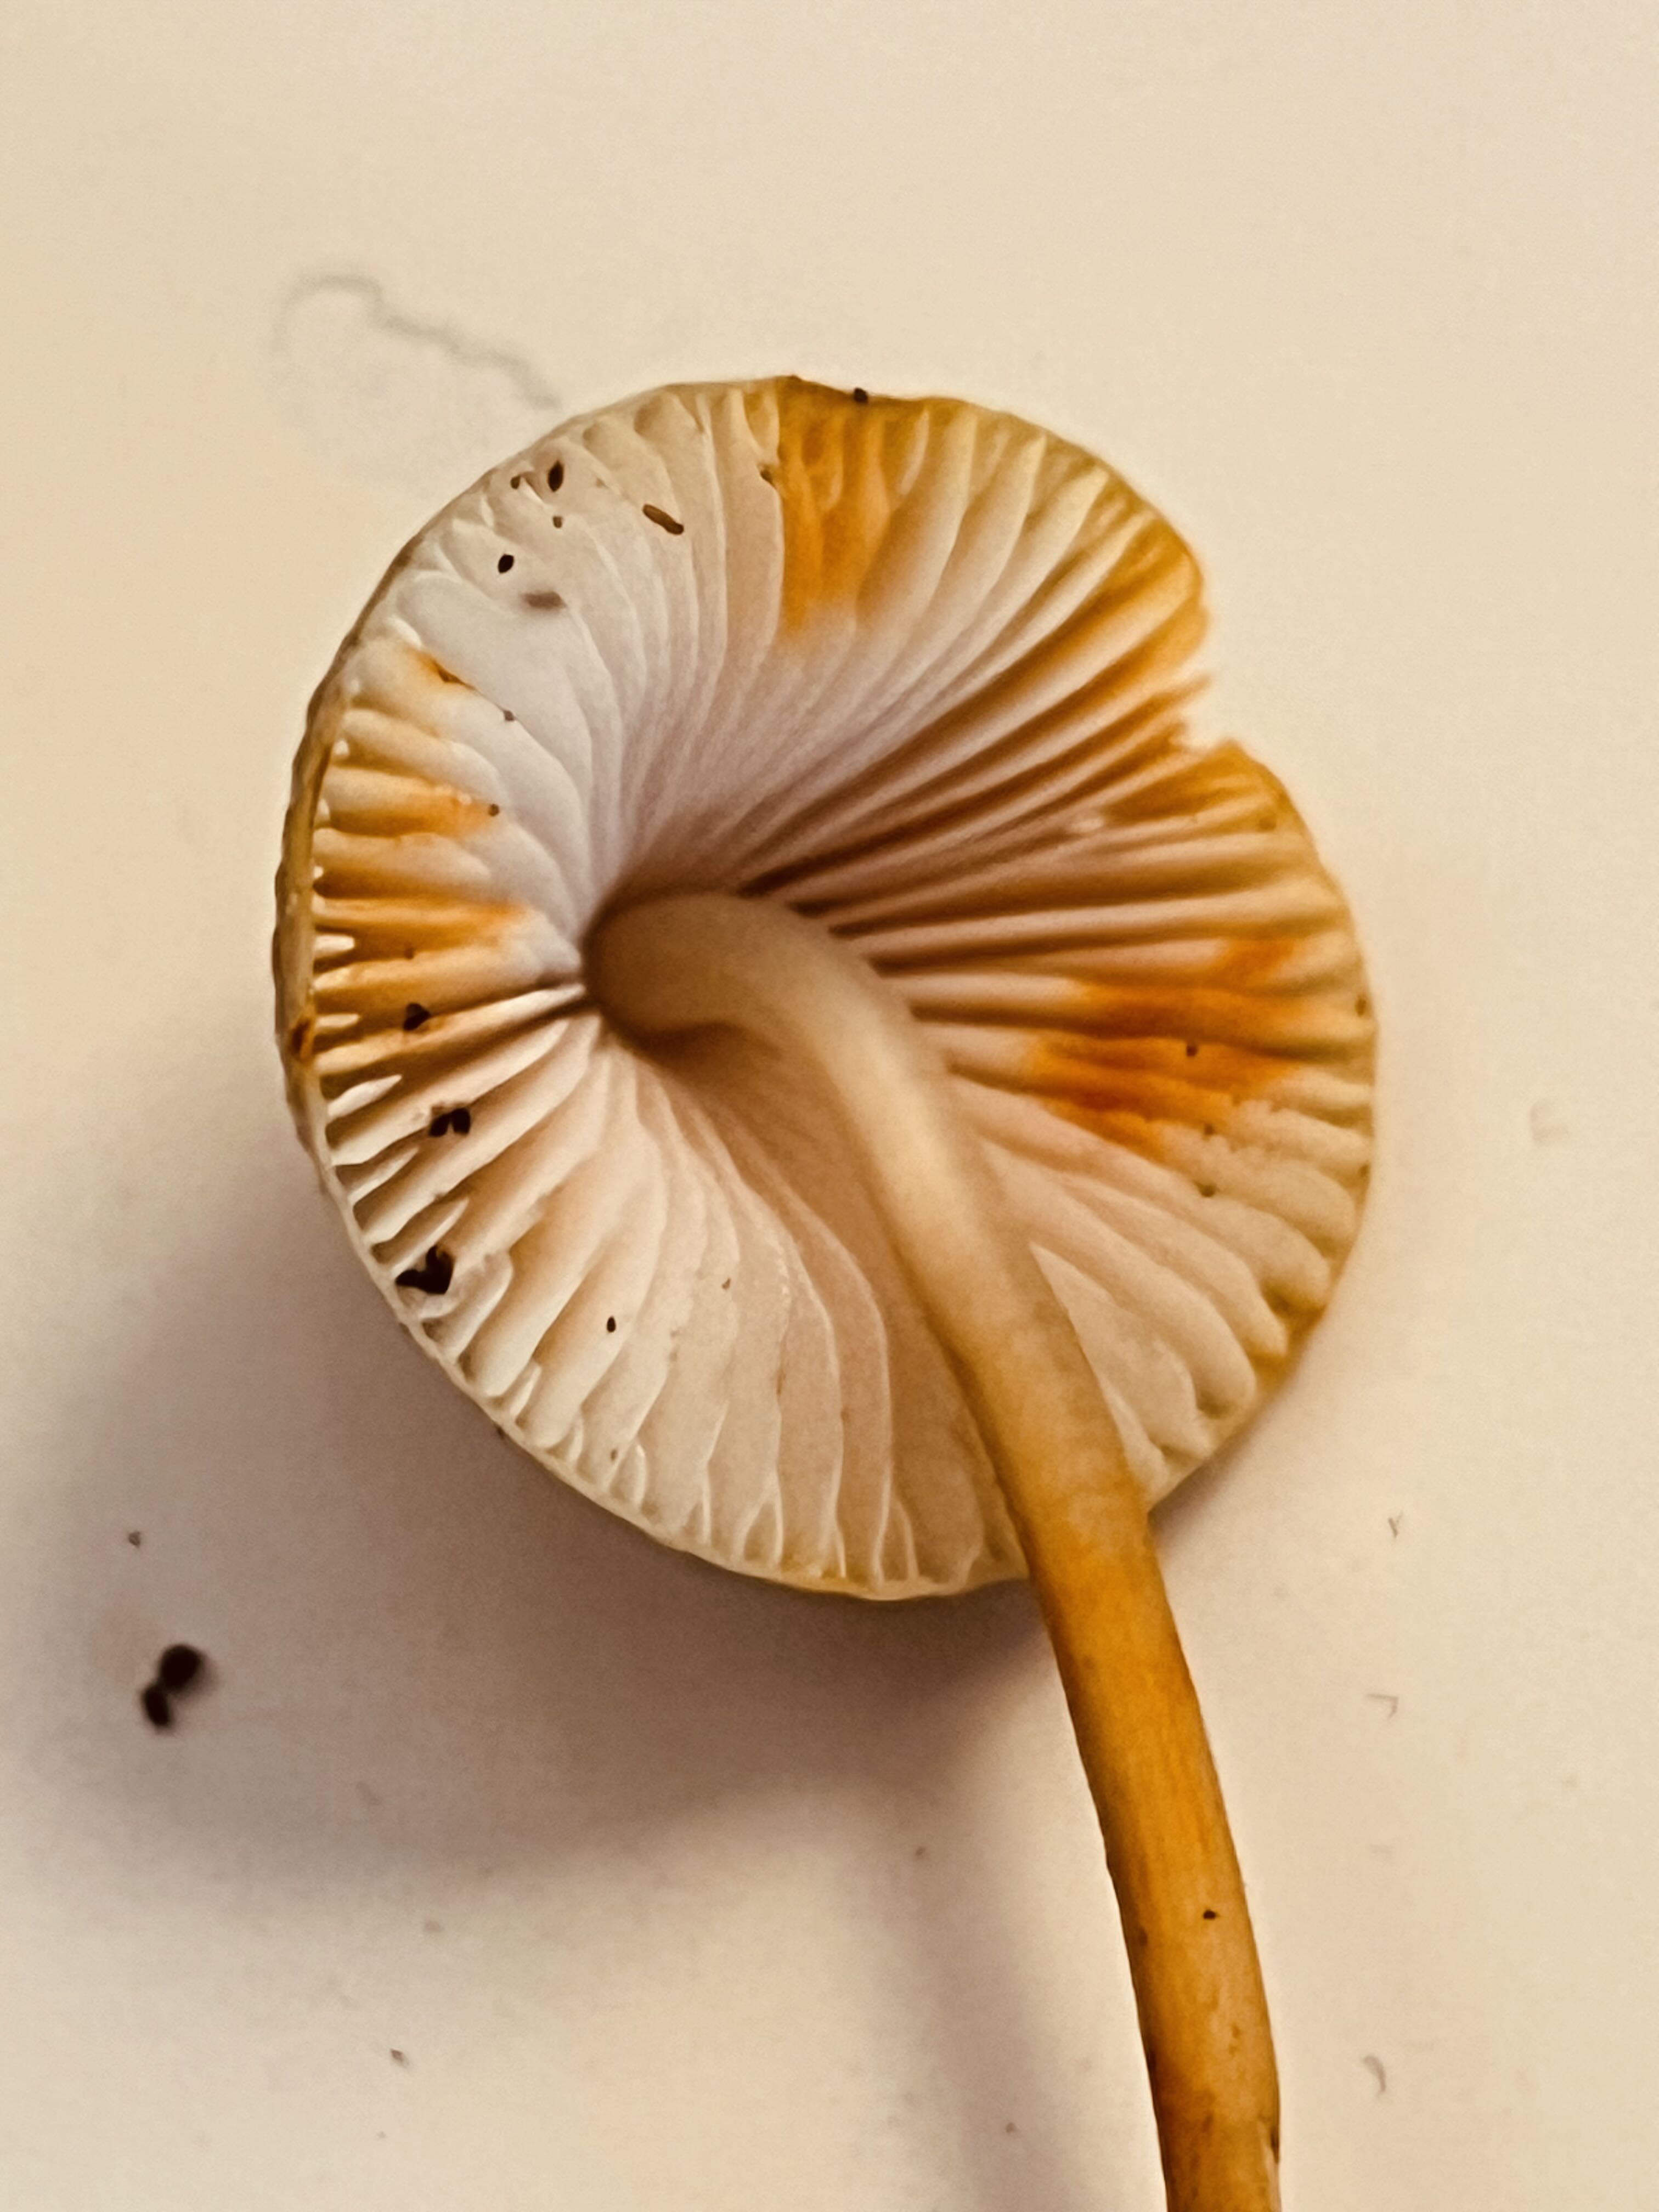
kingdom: Fungi
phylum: Basidiomycota
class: Agaricomycetes
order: Agaricales
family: Mycenaceae
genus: Mycena
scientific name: Mycena crocata
